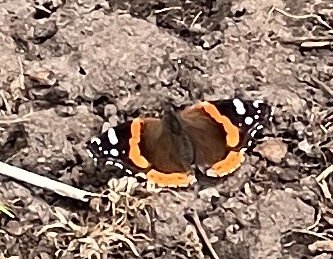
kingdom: Animalia
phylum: Arthropoda
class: Insecta
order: Lepidoptera
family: Nymphalidae
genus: Vanessa
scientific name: Vanessa atalanta
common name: Red Admiral
